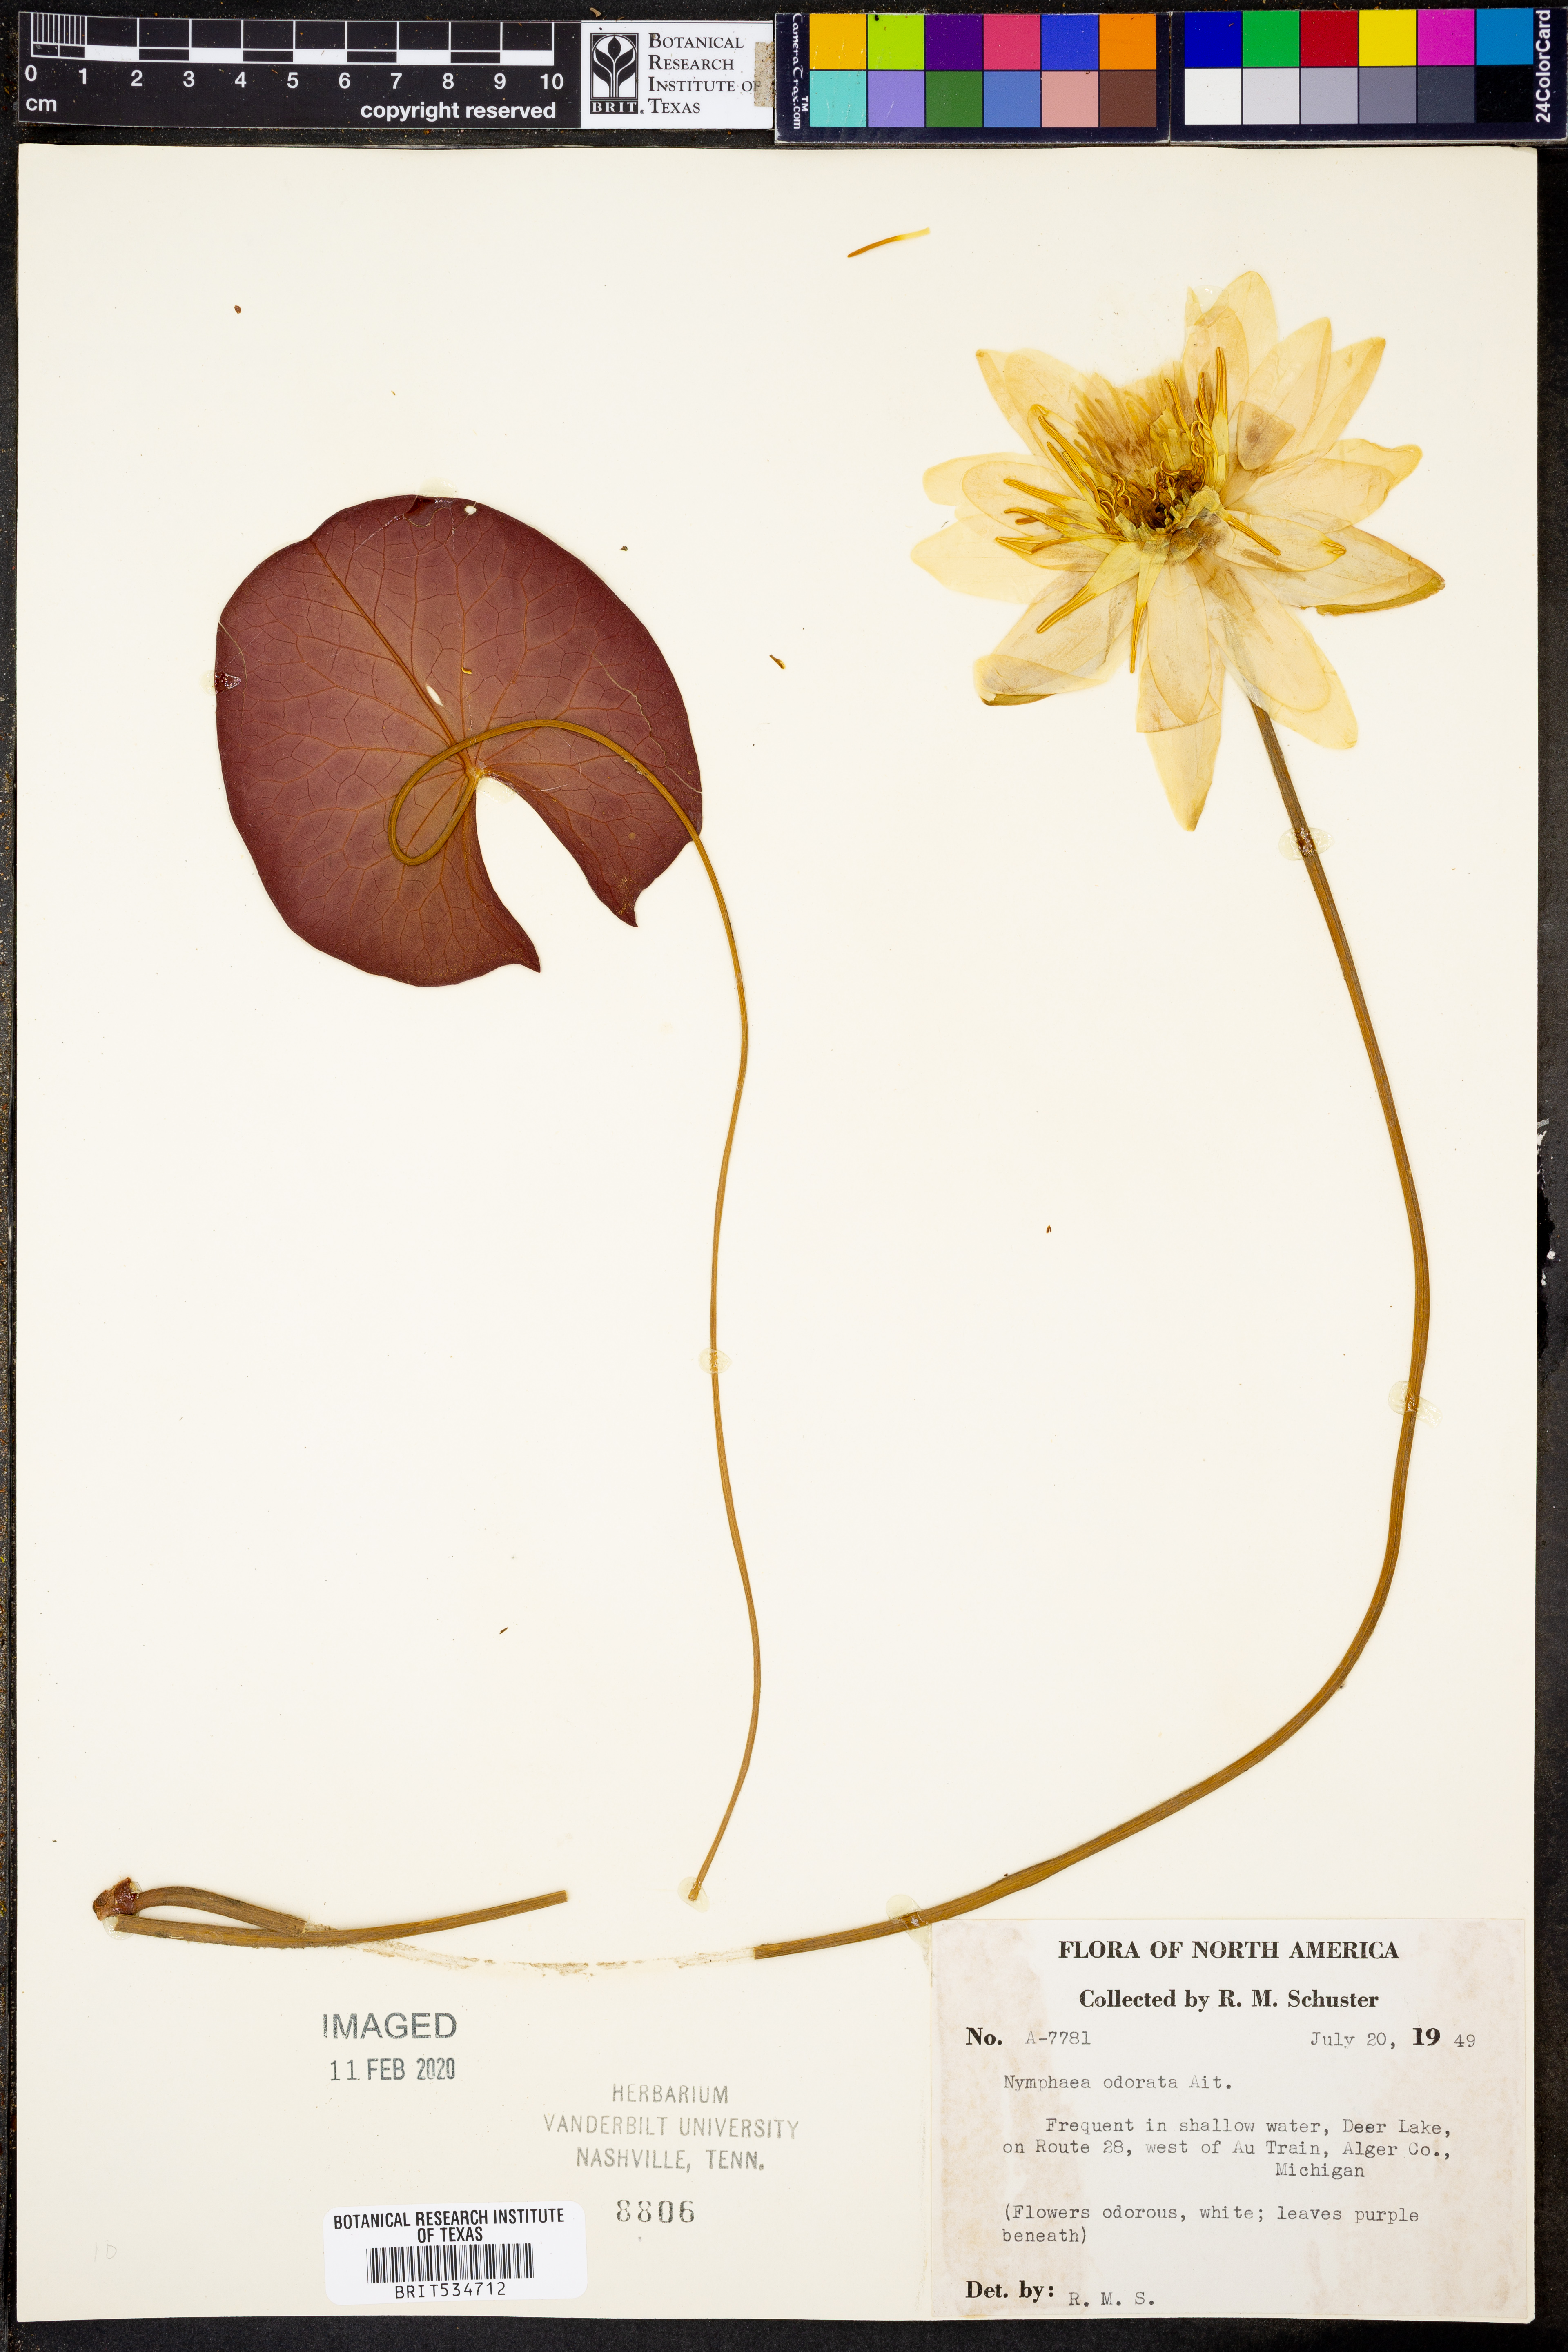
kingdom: Plantae
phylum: Tracheophyta
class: Magnoliopsida
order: Nymphaeales
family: Nymphaeaceae
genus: Nymphaea
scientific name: Nymphaea odorata
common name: Fragrant water-lily
